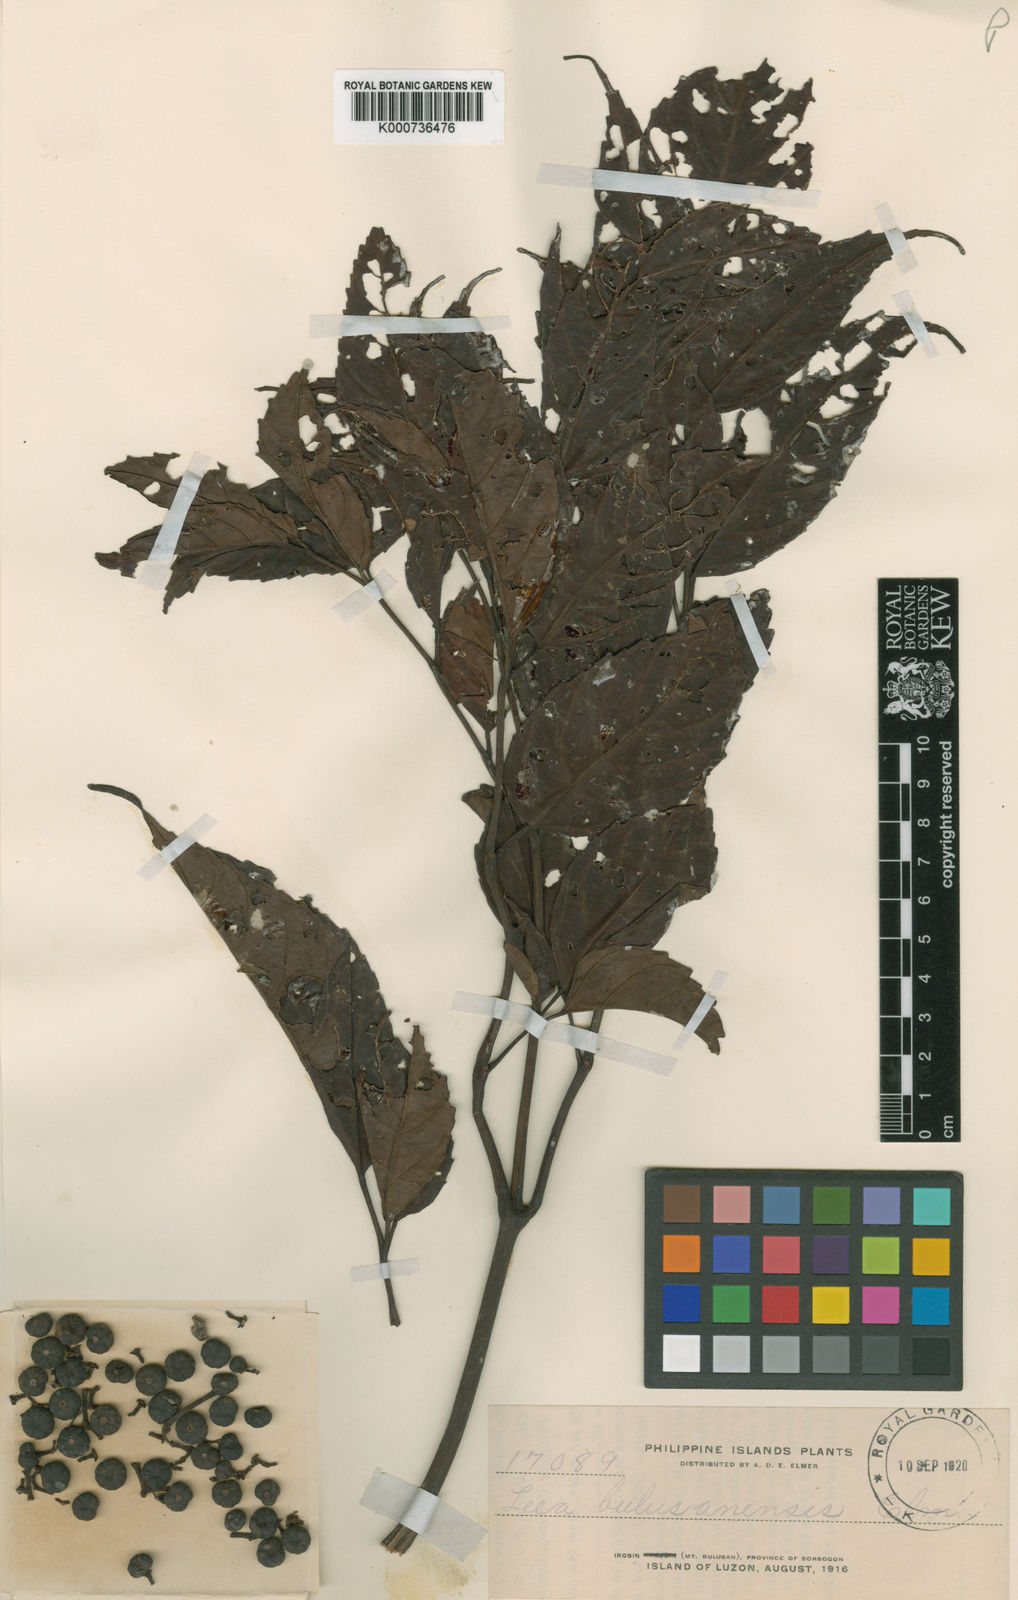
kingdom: Plantae
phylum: Tracheophyta
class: Magnoliopsida
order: Vitales
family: Vitaceae
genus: Leea
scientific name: Leea guineensis
